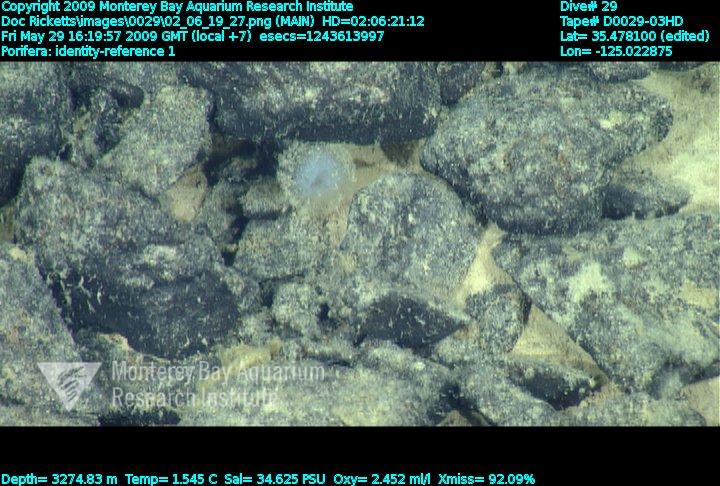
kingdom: Animalia
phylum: Porifera
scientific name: Porifera
